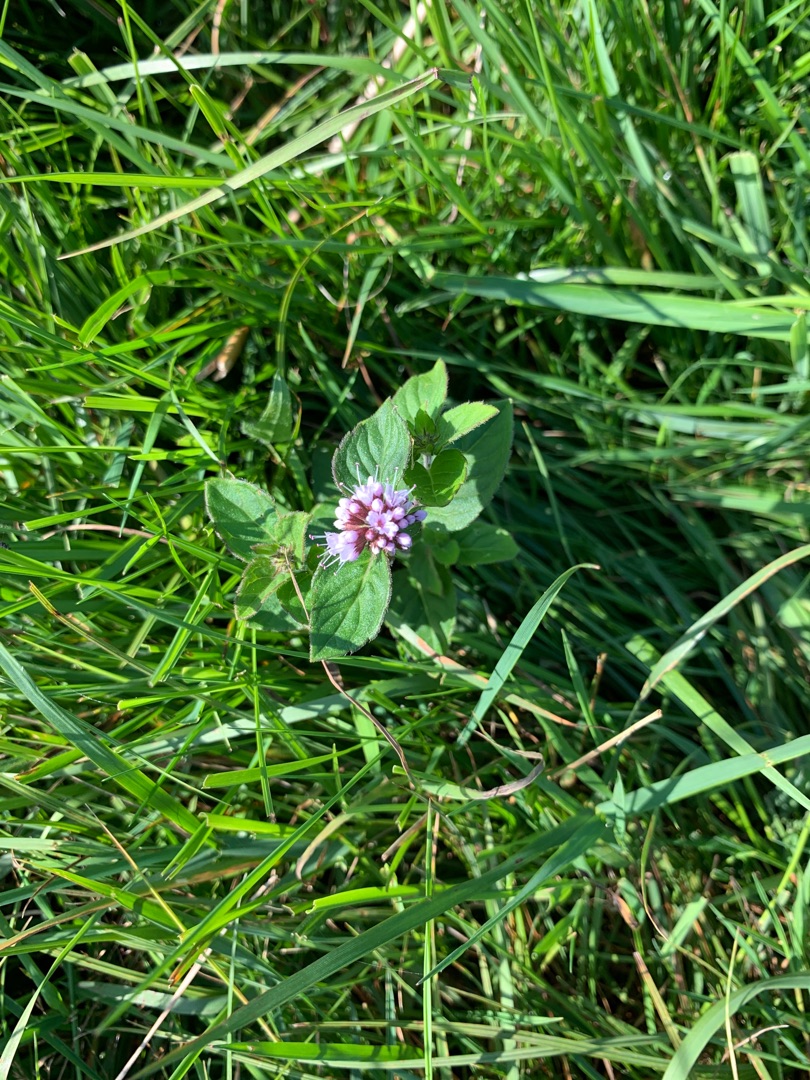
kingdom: Plantae
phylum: Tracheophyta
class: Magnoliopsida
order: Lamiales
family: Lamiaceae
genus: Mentha
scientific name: Mentha aquatica
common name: Vand-mynte
